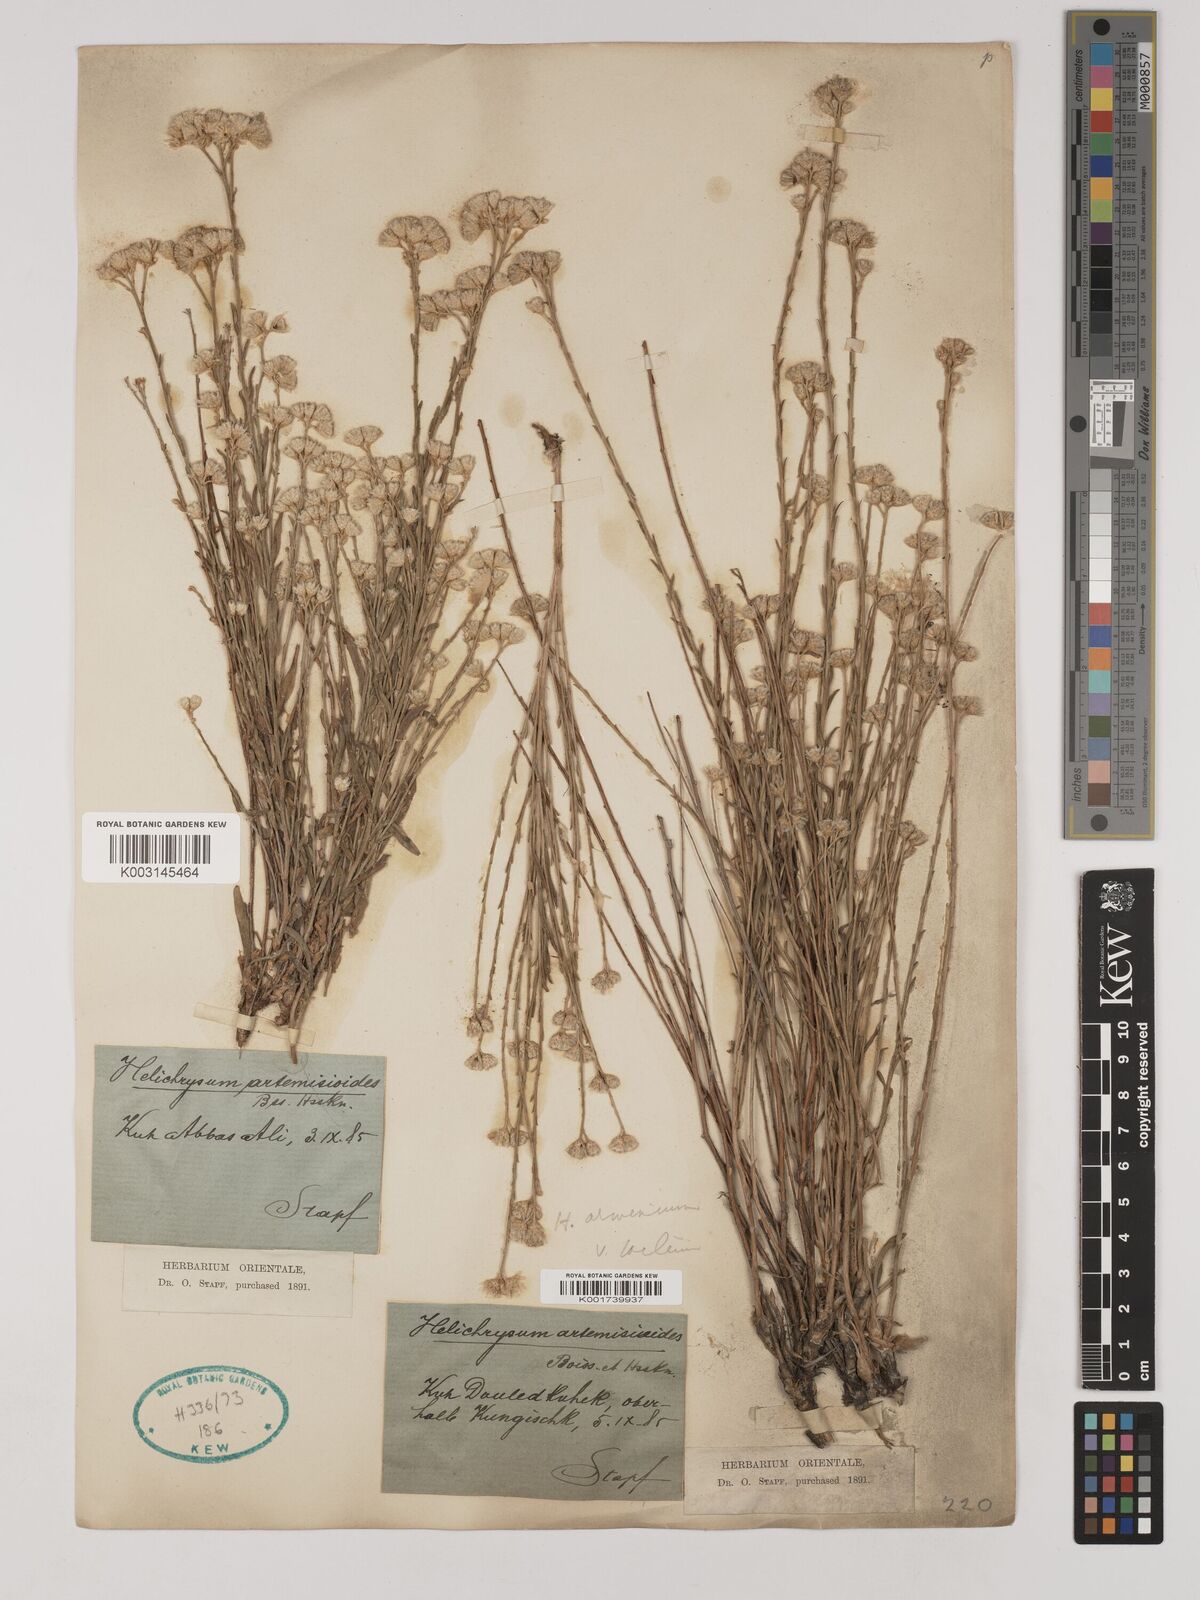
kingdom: Plantae
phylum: Tracheophyta
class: Magnoliopsida
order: Asterales
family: Asteraceae
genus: Helichrysum
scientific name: Helichrysum armenium
